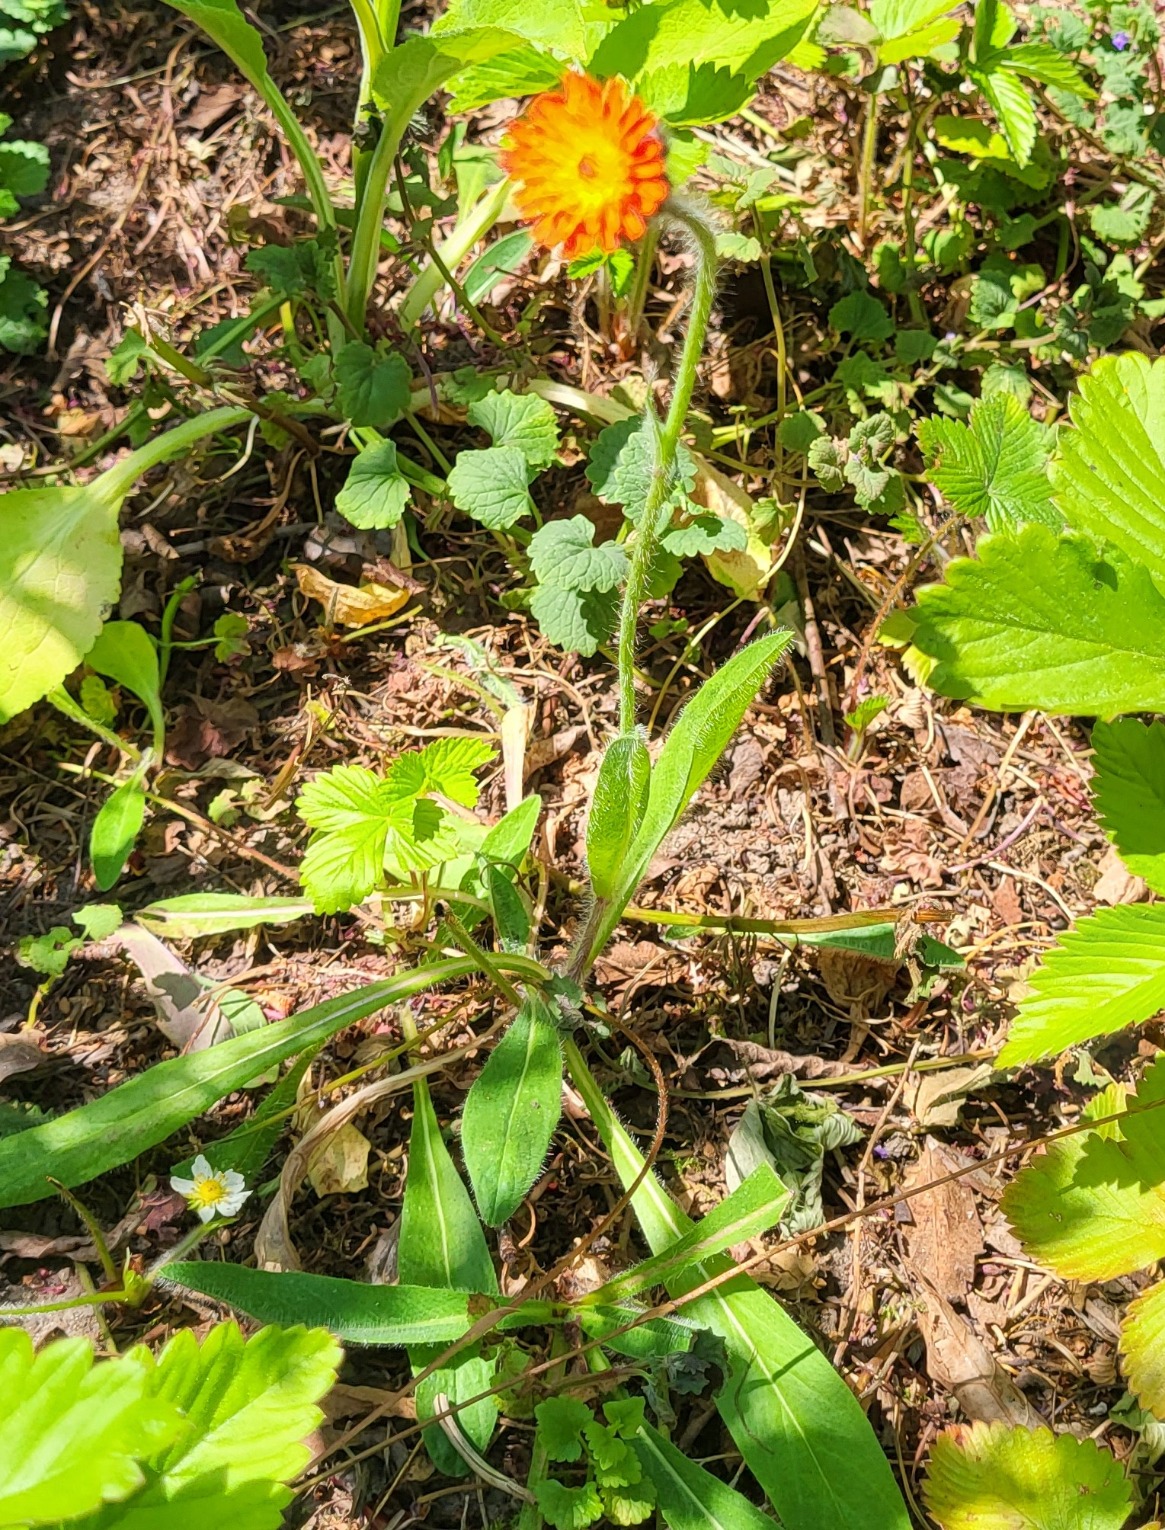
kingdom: Plantae
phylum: Tracheophyta
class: Magnoliopsida
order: Asterales
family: Asteraceae
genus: Pilosella
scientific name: Pilosella aurantiaca
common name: Pomerans-høgeurt
